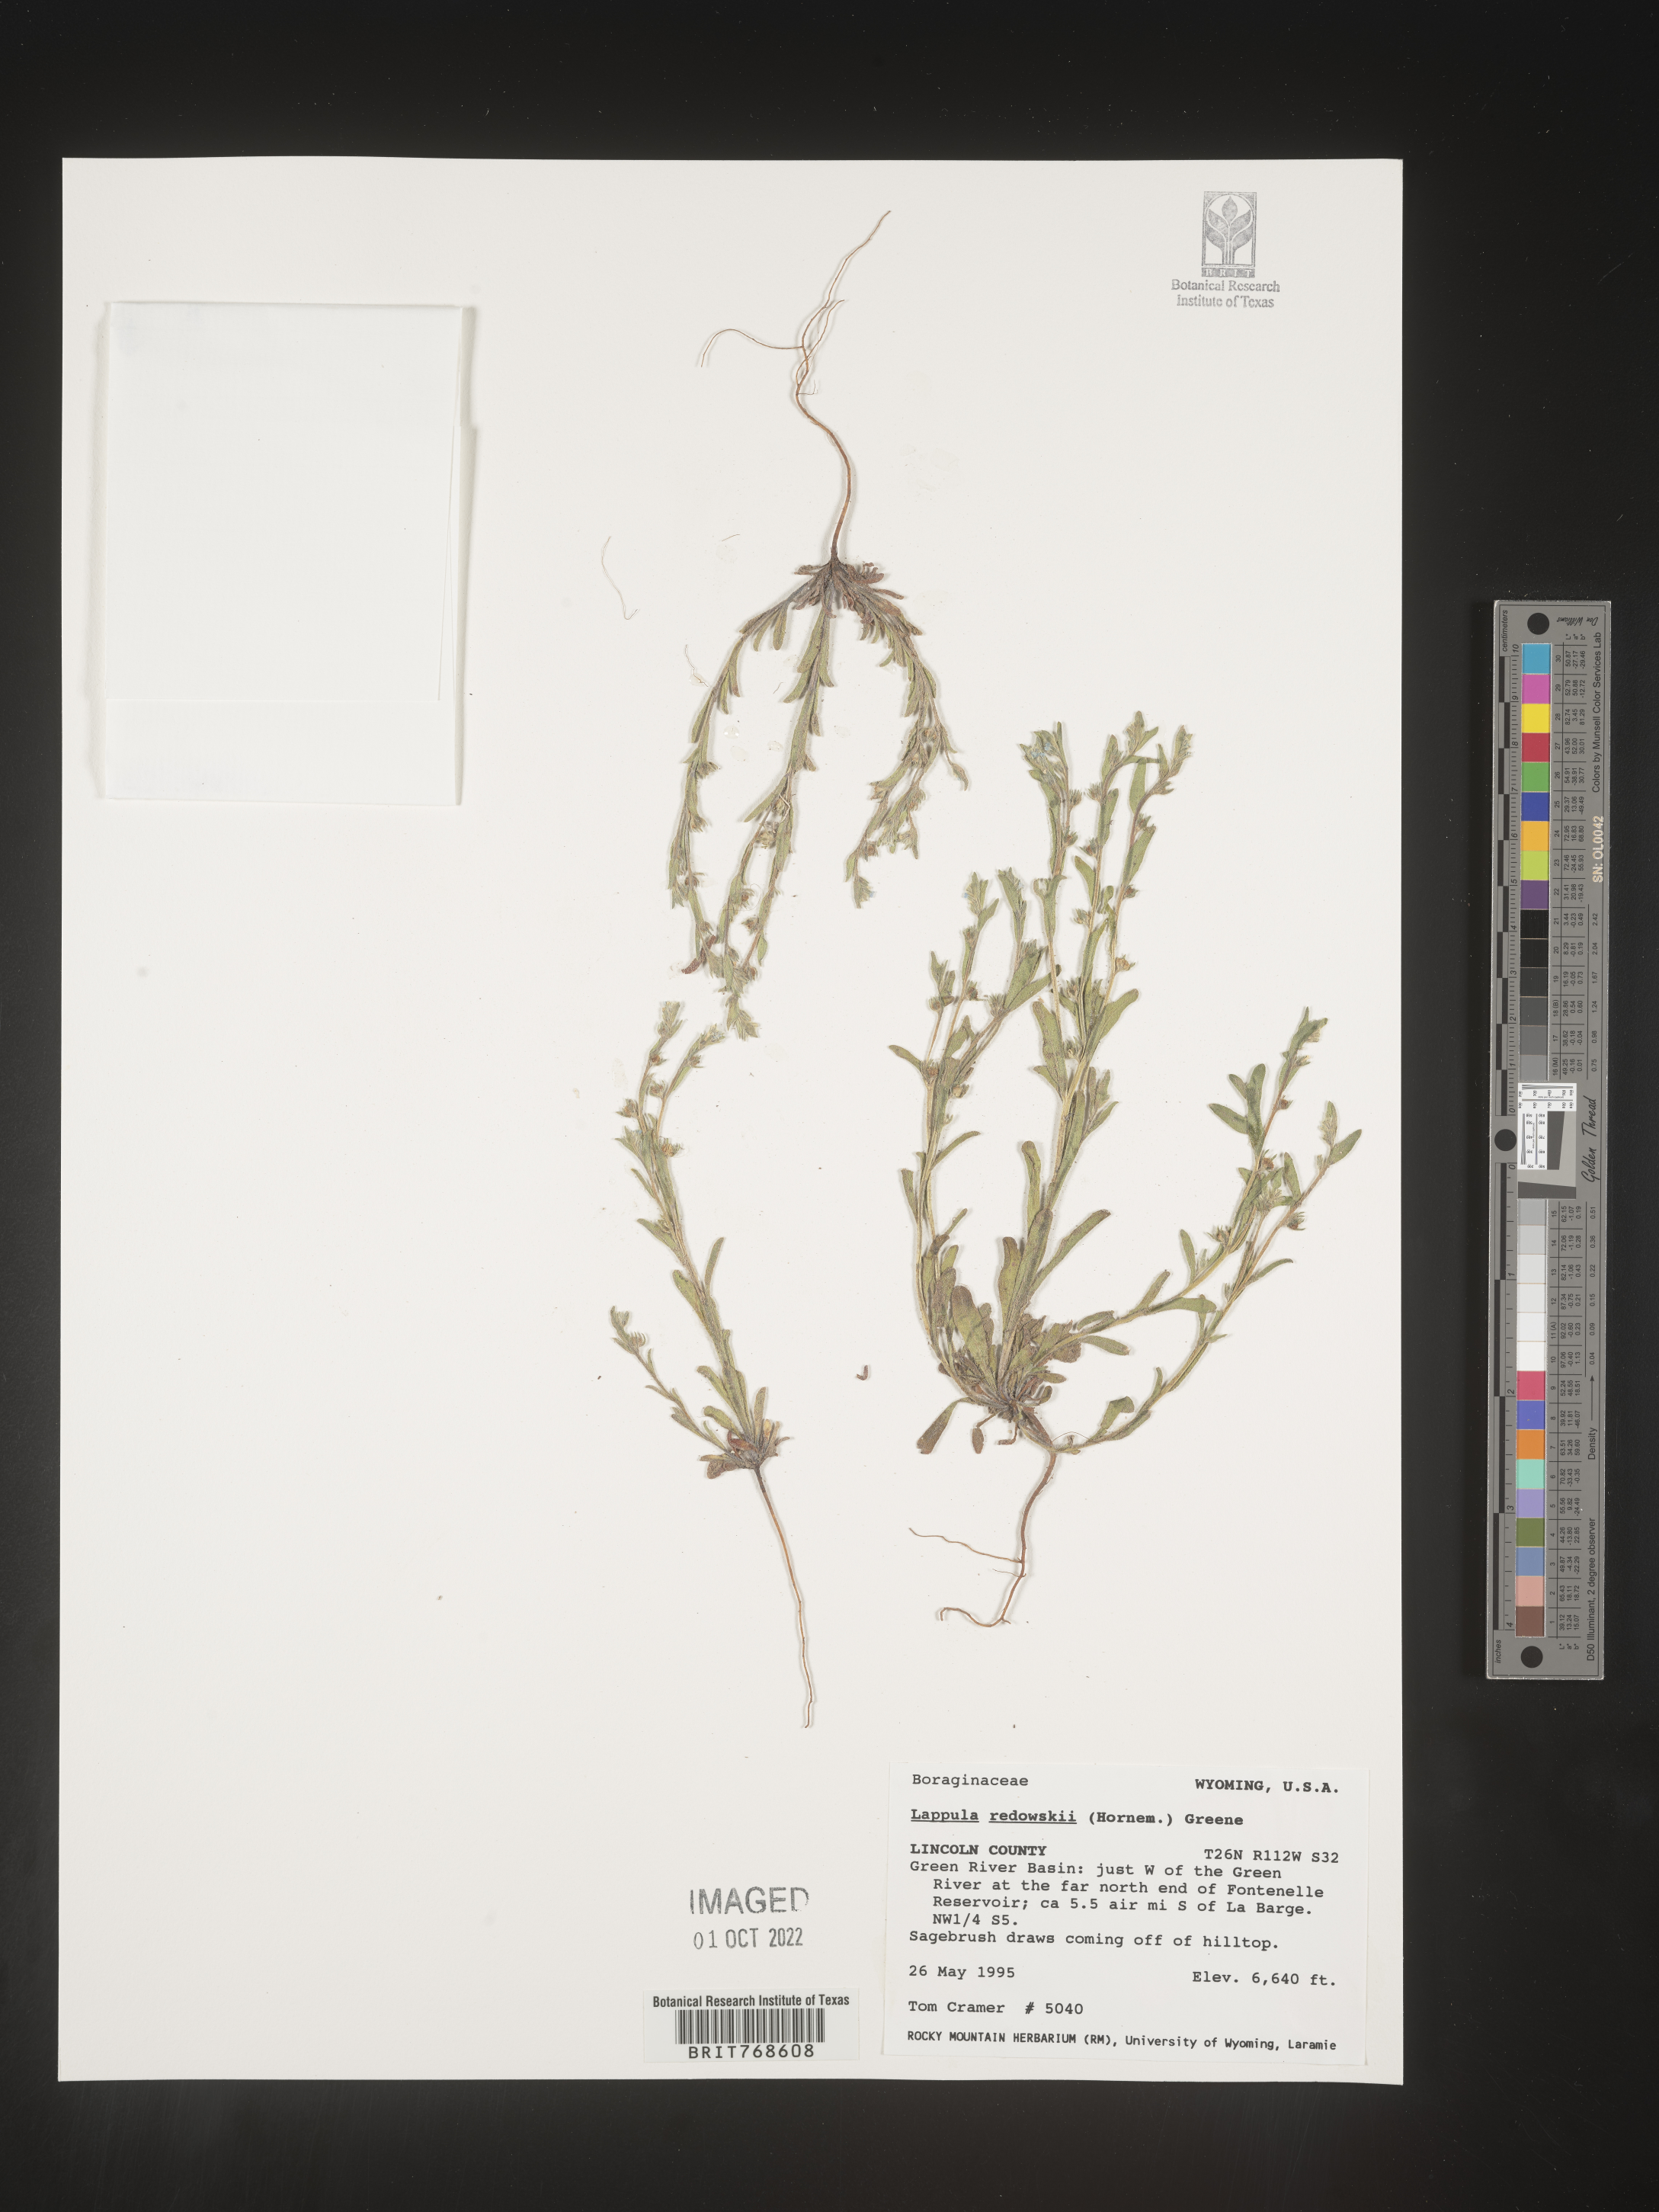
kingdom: Plantae
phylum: Tracheophyta
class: Magnoliopsida
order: Boraginales
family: Boraginaceae
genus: Lappula
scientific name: Lappula redowskii
